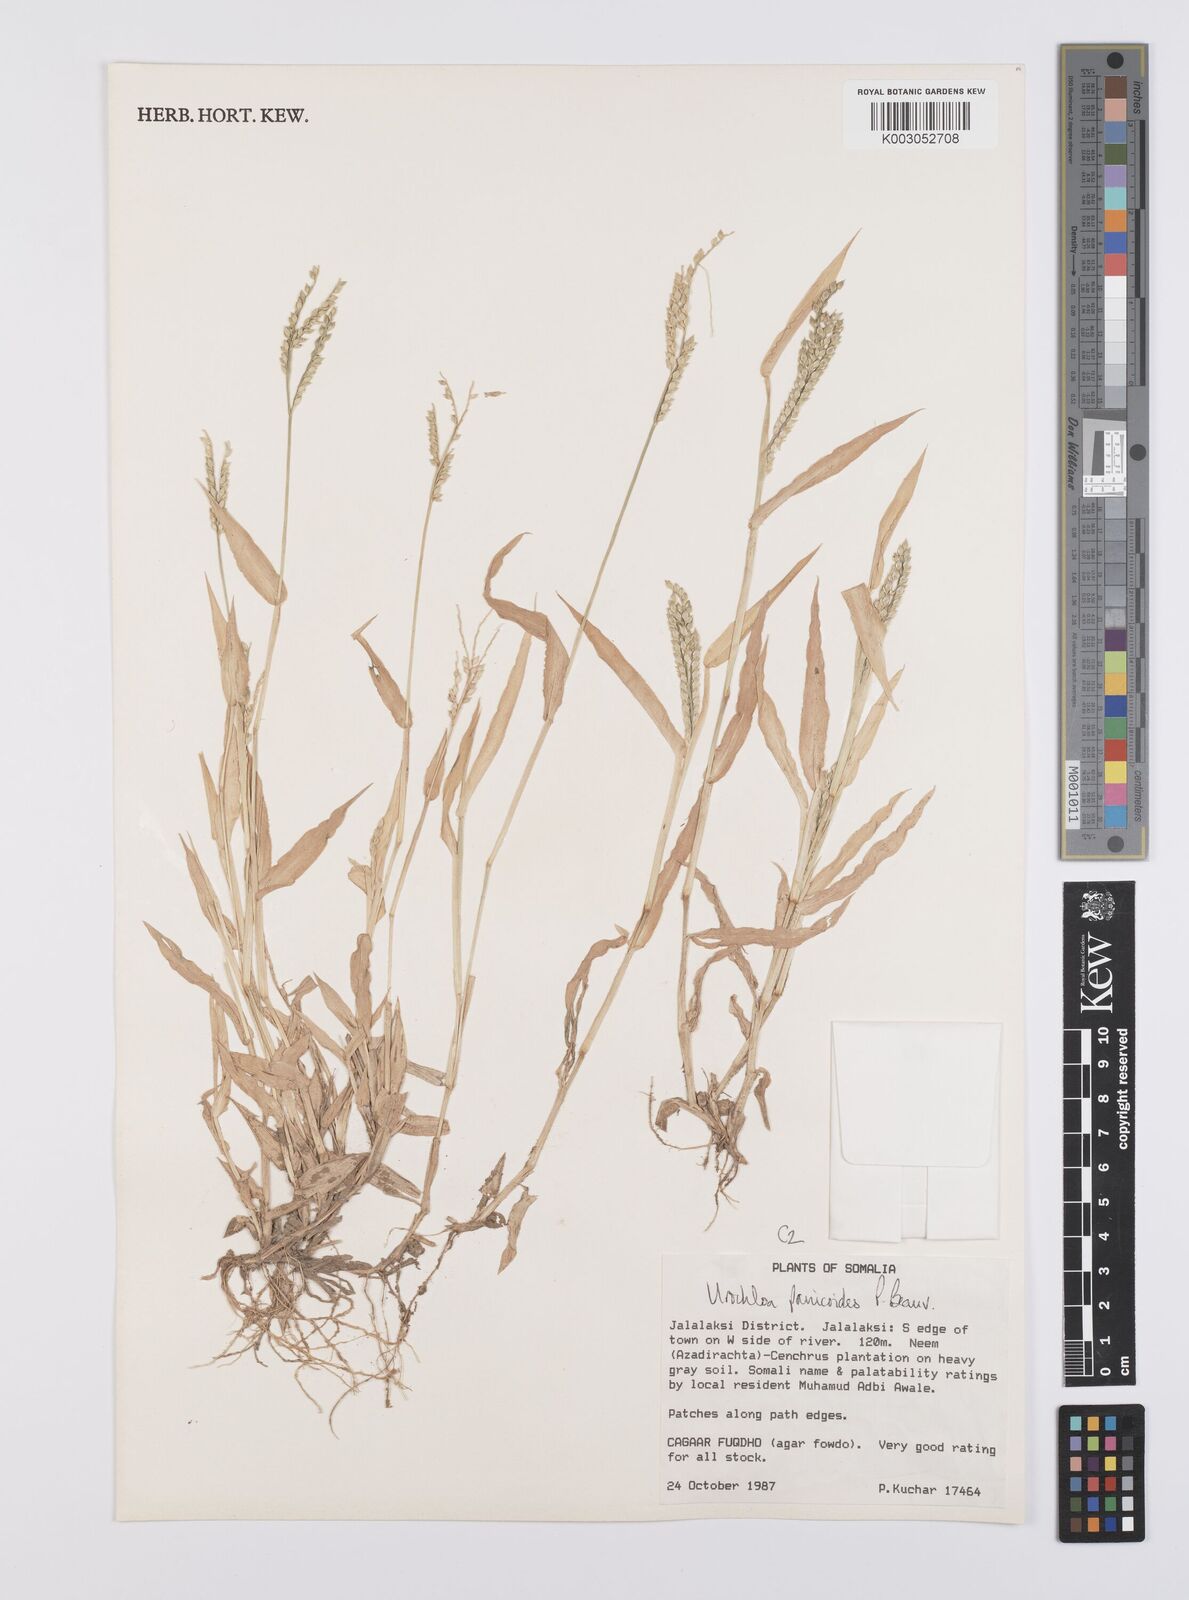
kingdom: Plantae
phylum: Tracheophyta
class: Liliopsida
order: Poales
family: Poaceae
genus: Urochloa
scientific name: Urochloa panicoides
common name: Sharp-flowered signal-grass
